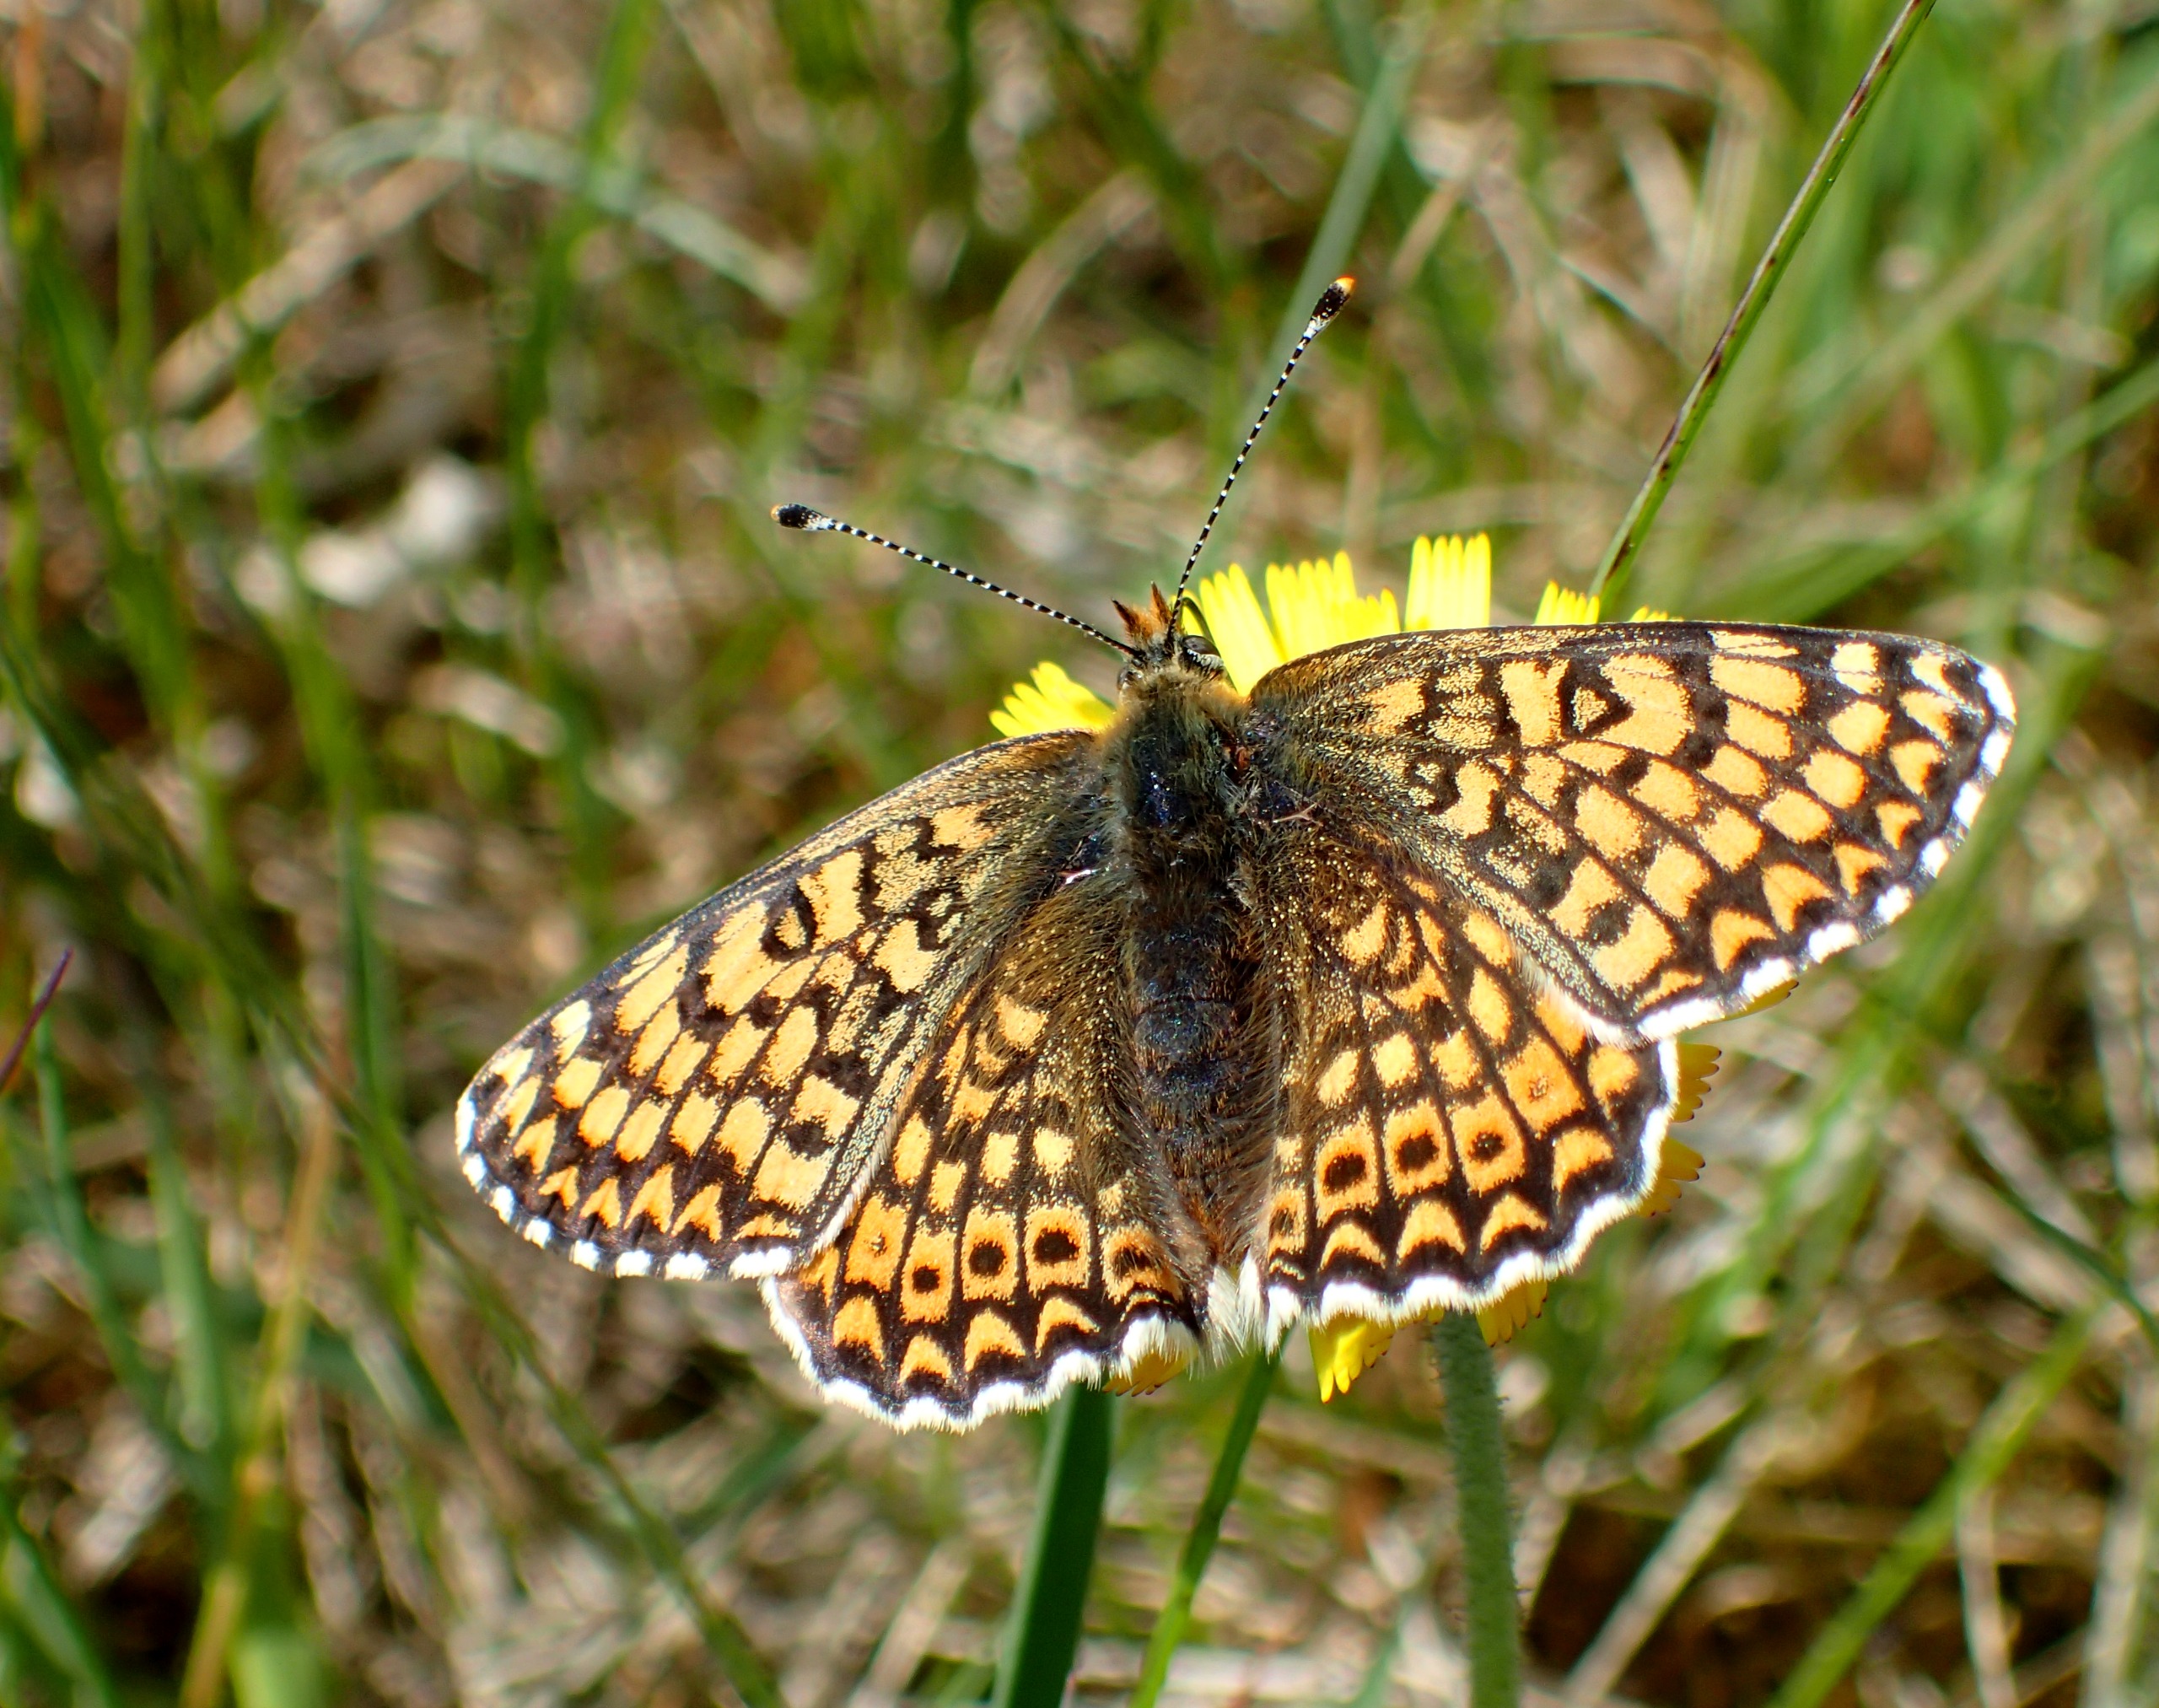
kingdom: Animalia
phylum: Arthropoda
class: Insecta
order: Lepidoptera
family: Nymphalidae
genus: Melitaea
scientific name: Melitaea cinxia
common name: Okkergul pletvinge
